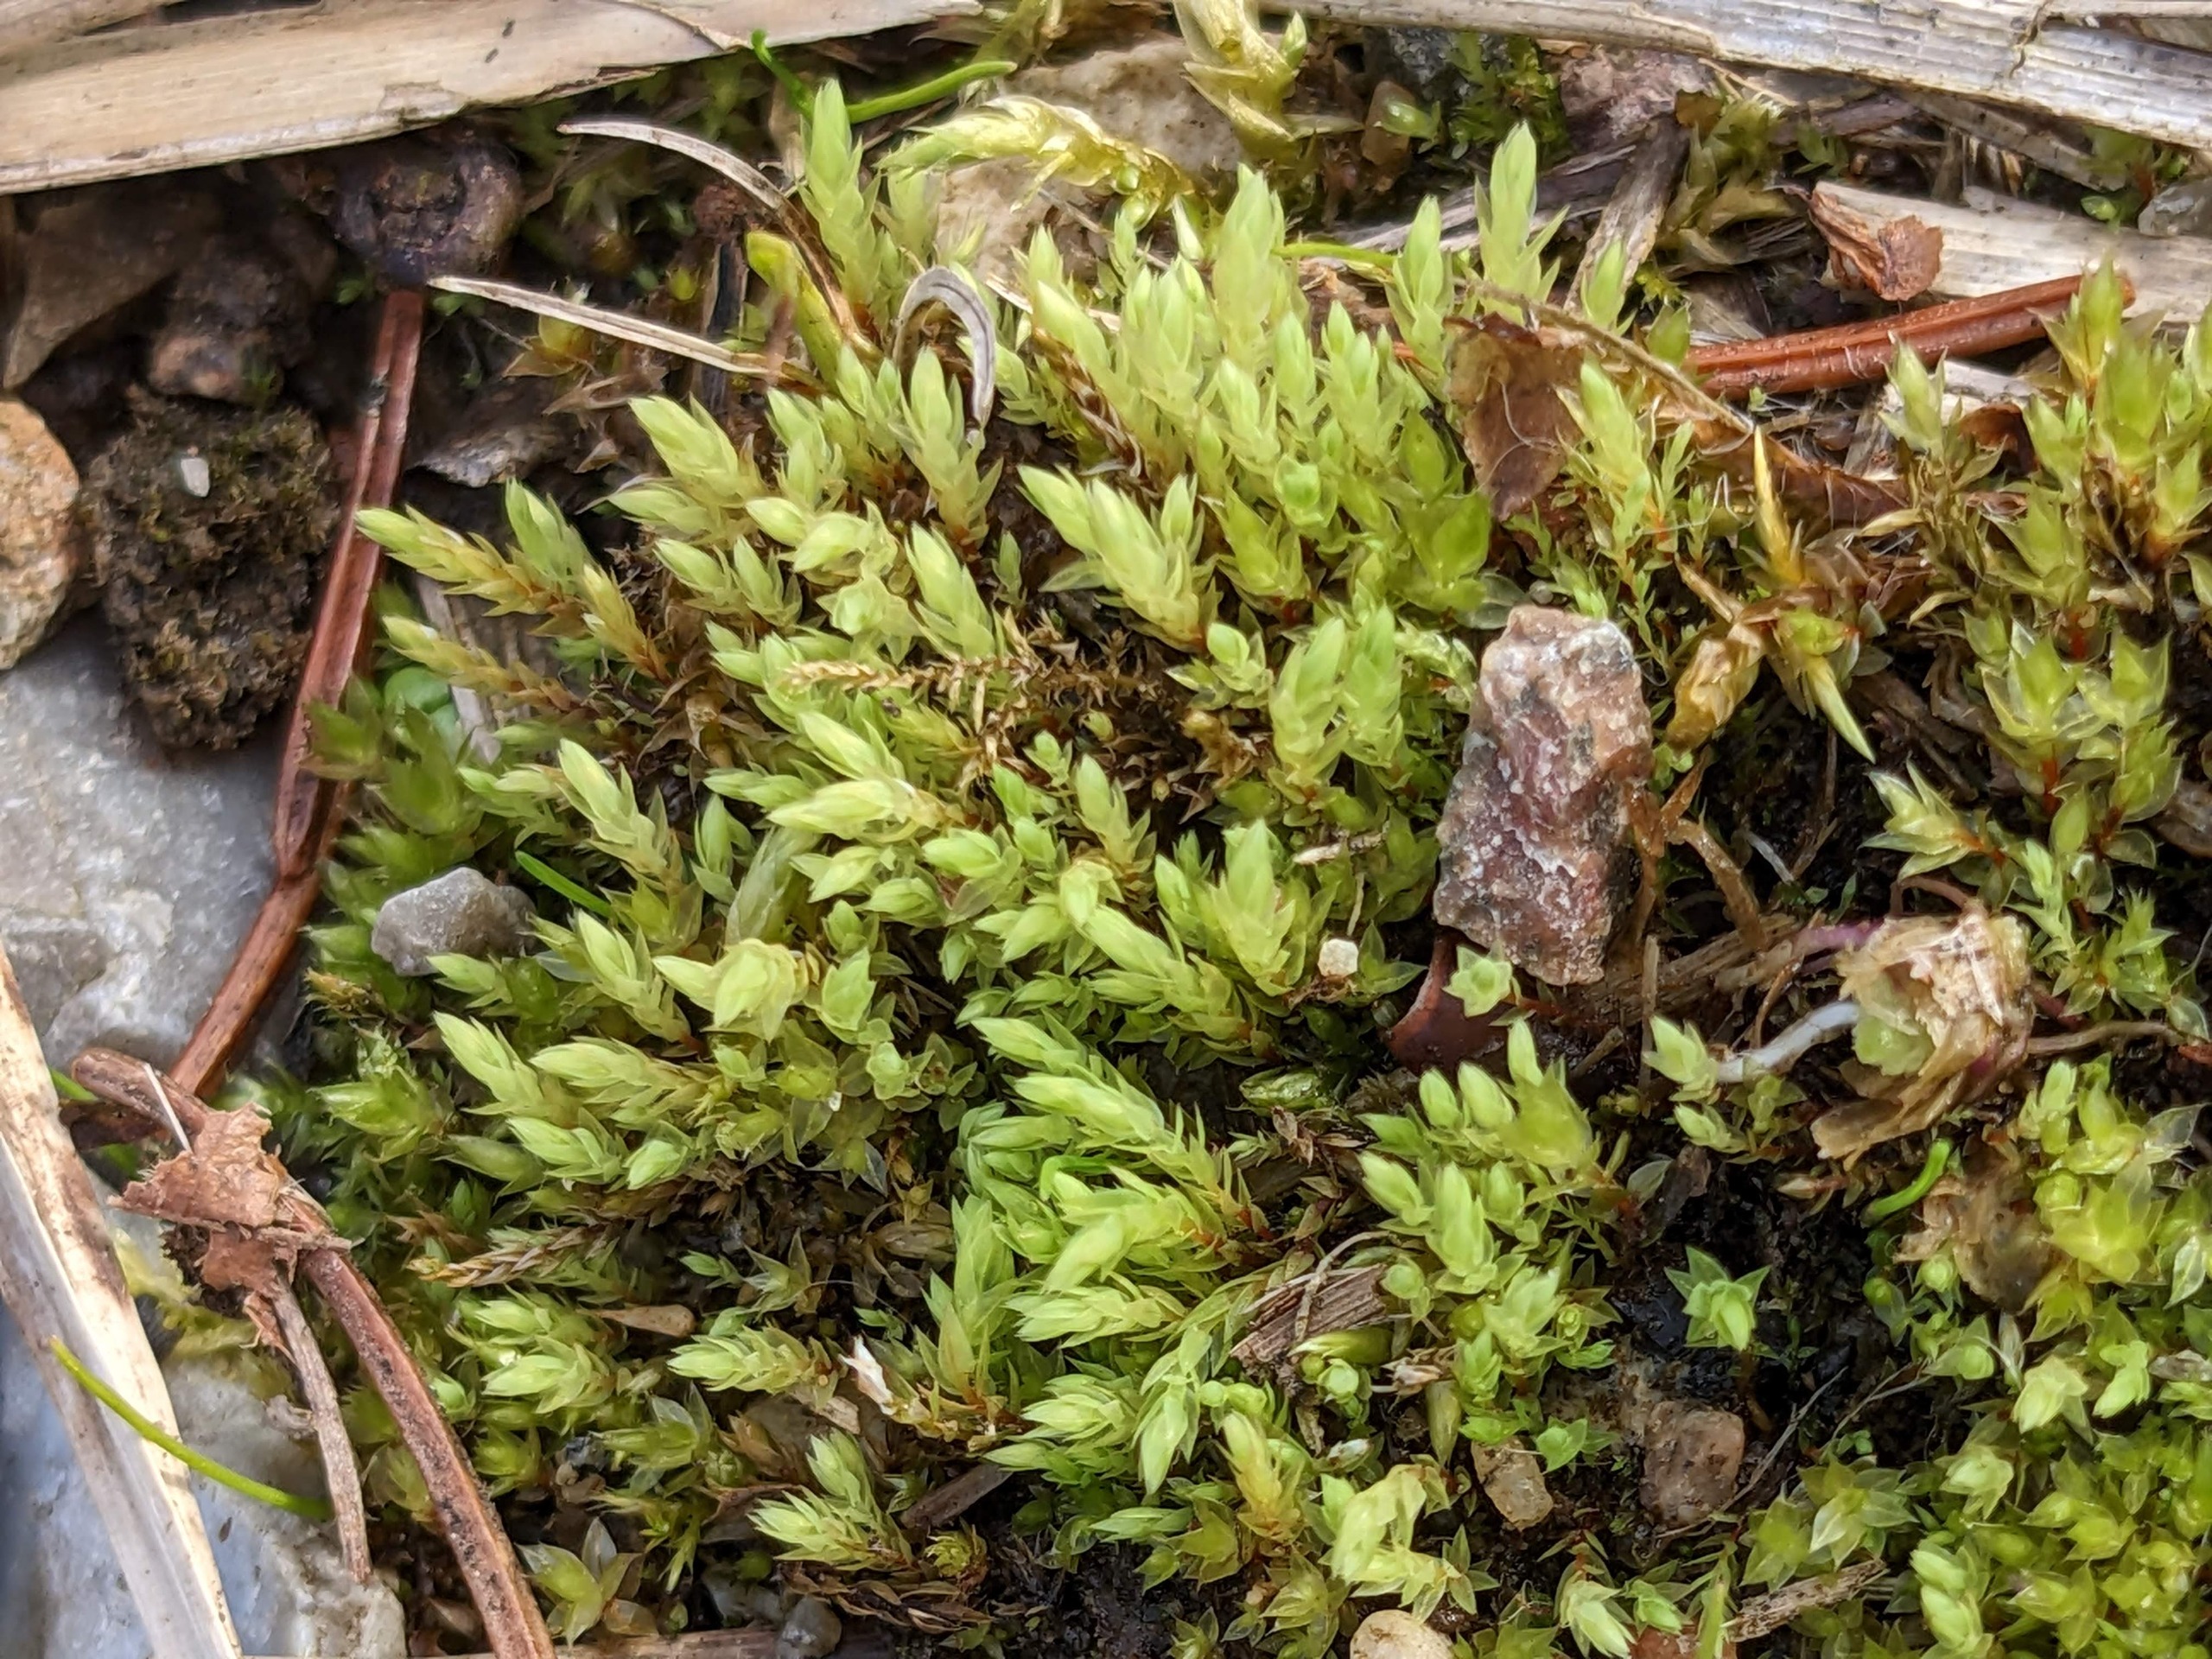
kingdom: Plantae
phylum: Bryophyta
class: Bryopsida
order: Bryales
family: Mniaceae
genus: Pohlia
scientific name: Pohlia wahlenbergii
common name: Lysegrøn voksmos
